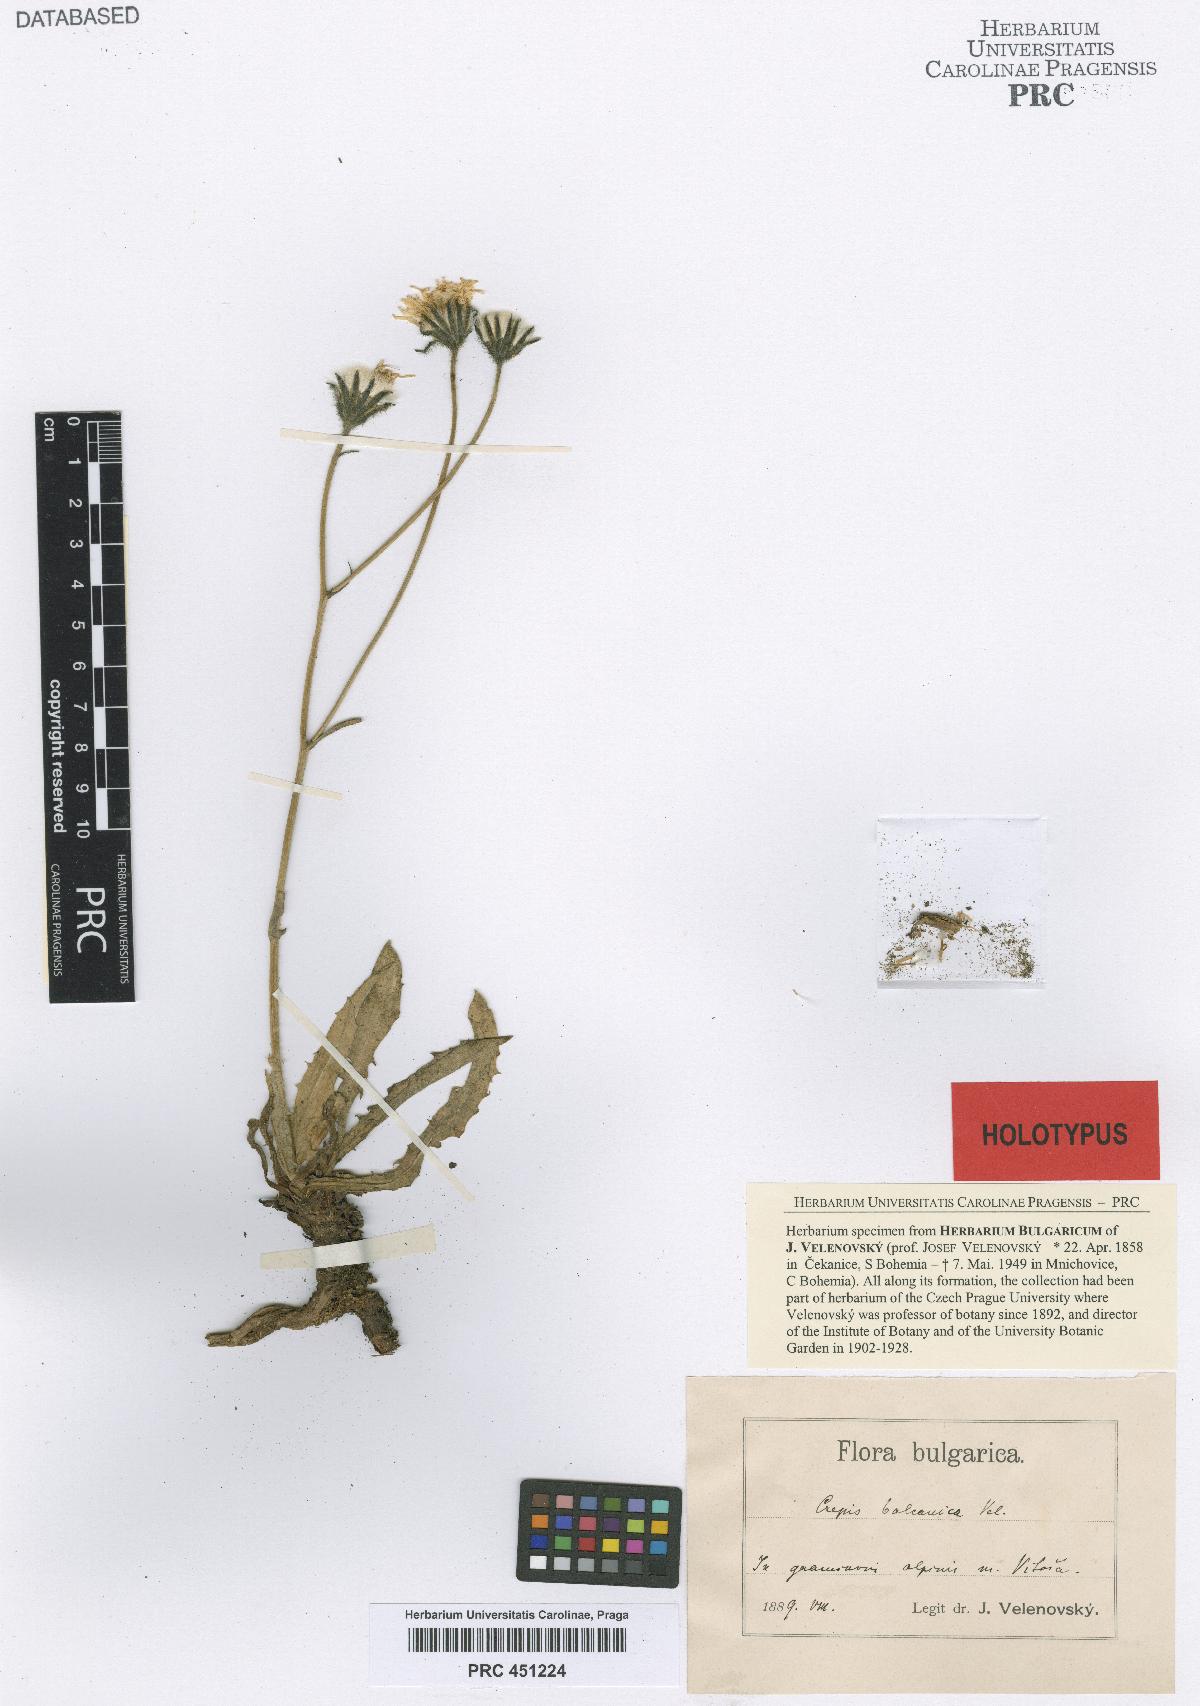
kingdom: Plantae
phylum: Tracheophyta
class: Magnoliopsida
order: Asterales
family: Asteraceae
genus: Crepis
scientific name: Crepis pyrenaica
